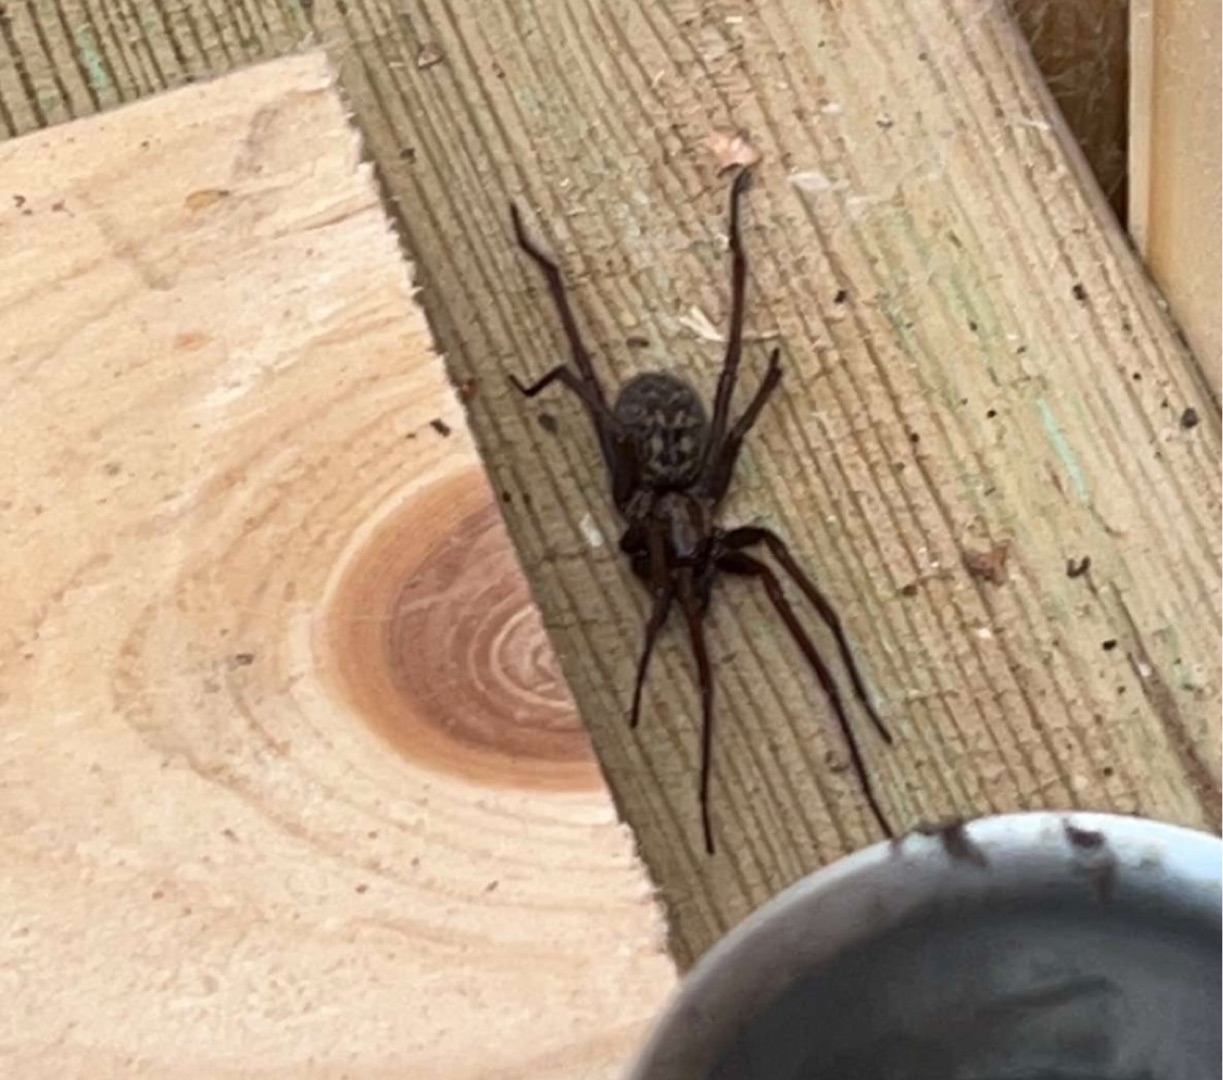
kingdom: Animalia
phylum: Arthropoda
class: Arachnida
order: Araneae
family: Agelenidae
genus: Eratigena
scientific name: Eratigena atrica
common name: Stor husedderkop
